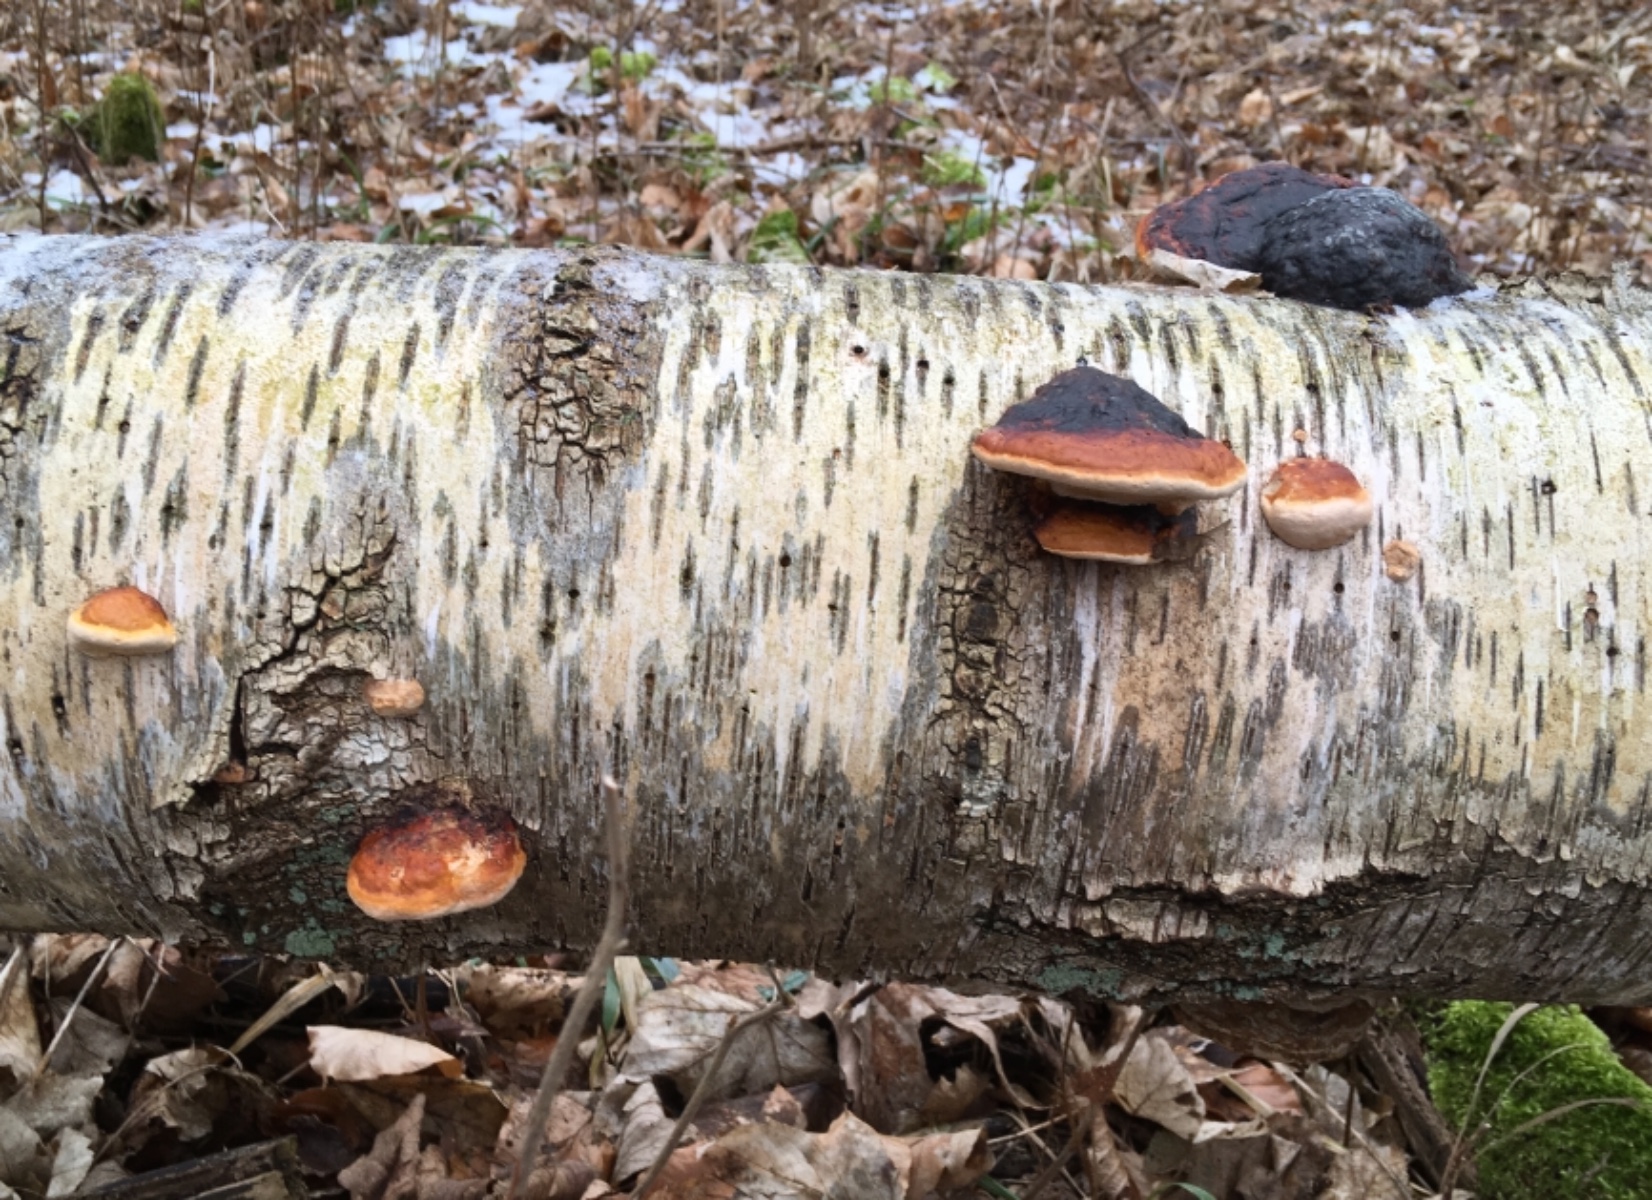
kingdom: Fungi
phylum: Basidiomycota
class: Agaricomycetes
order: Polyporales
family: Fomitopsidaceae
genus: Fomitopsis
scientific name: Fomitopsis pinicola
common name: randbæltet hovporesvamp
